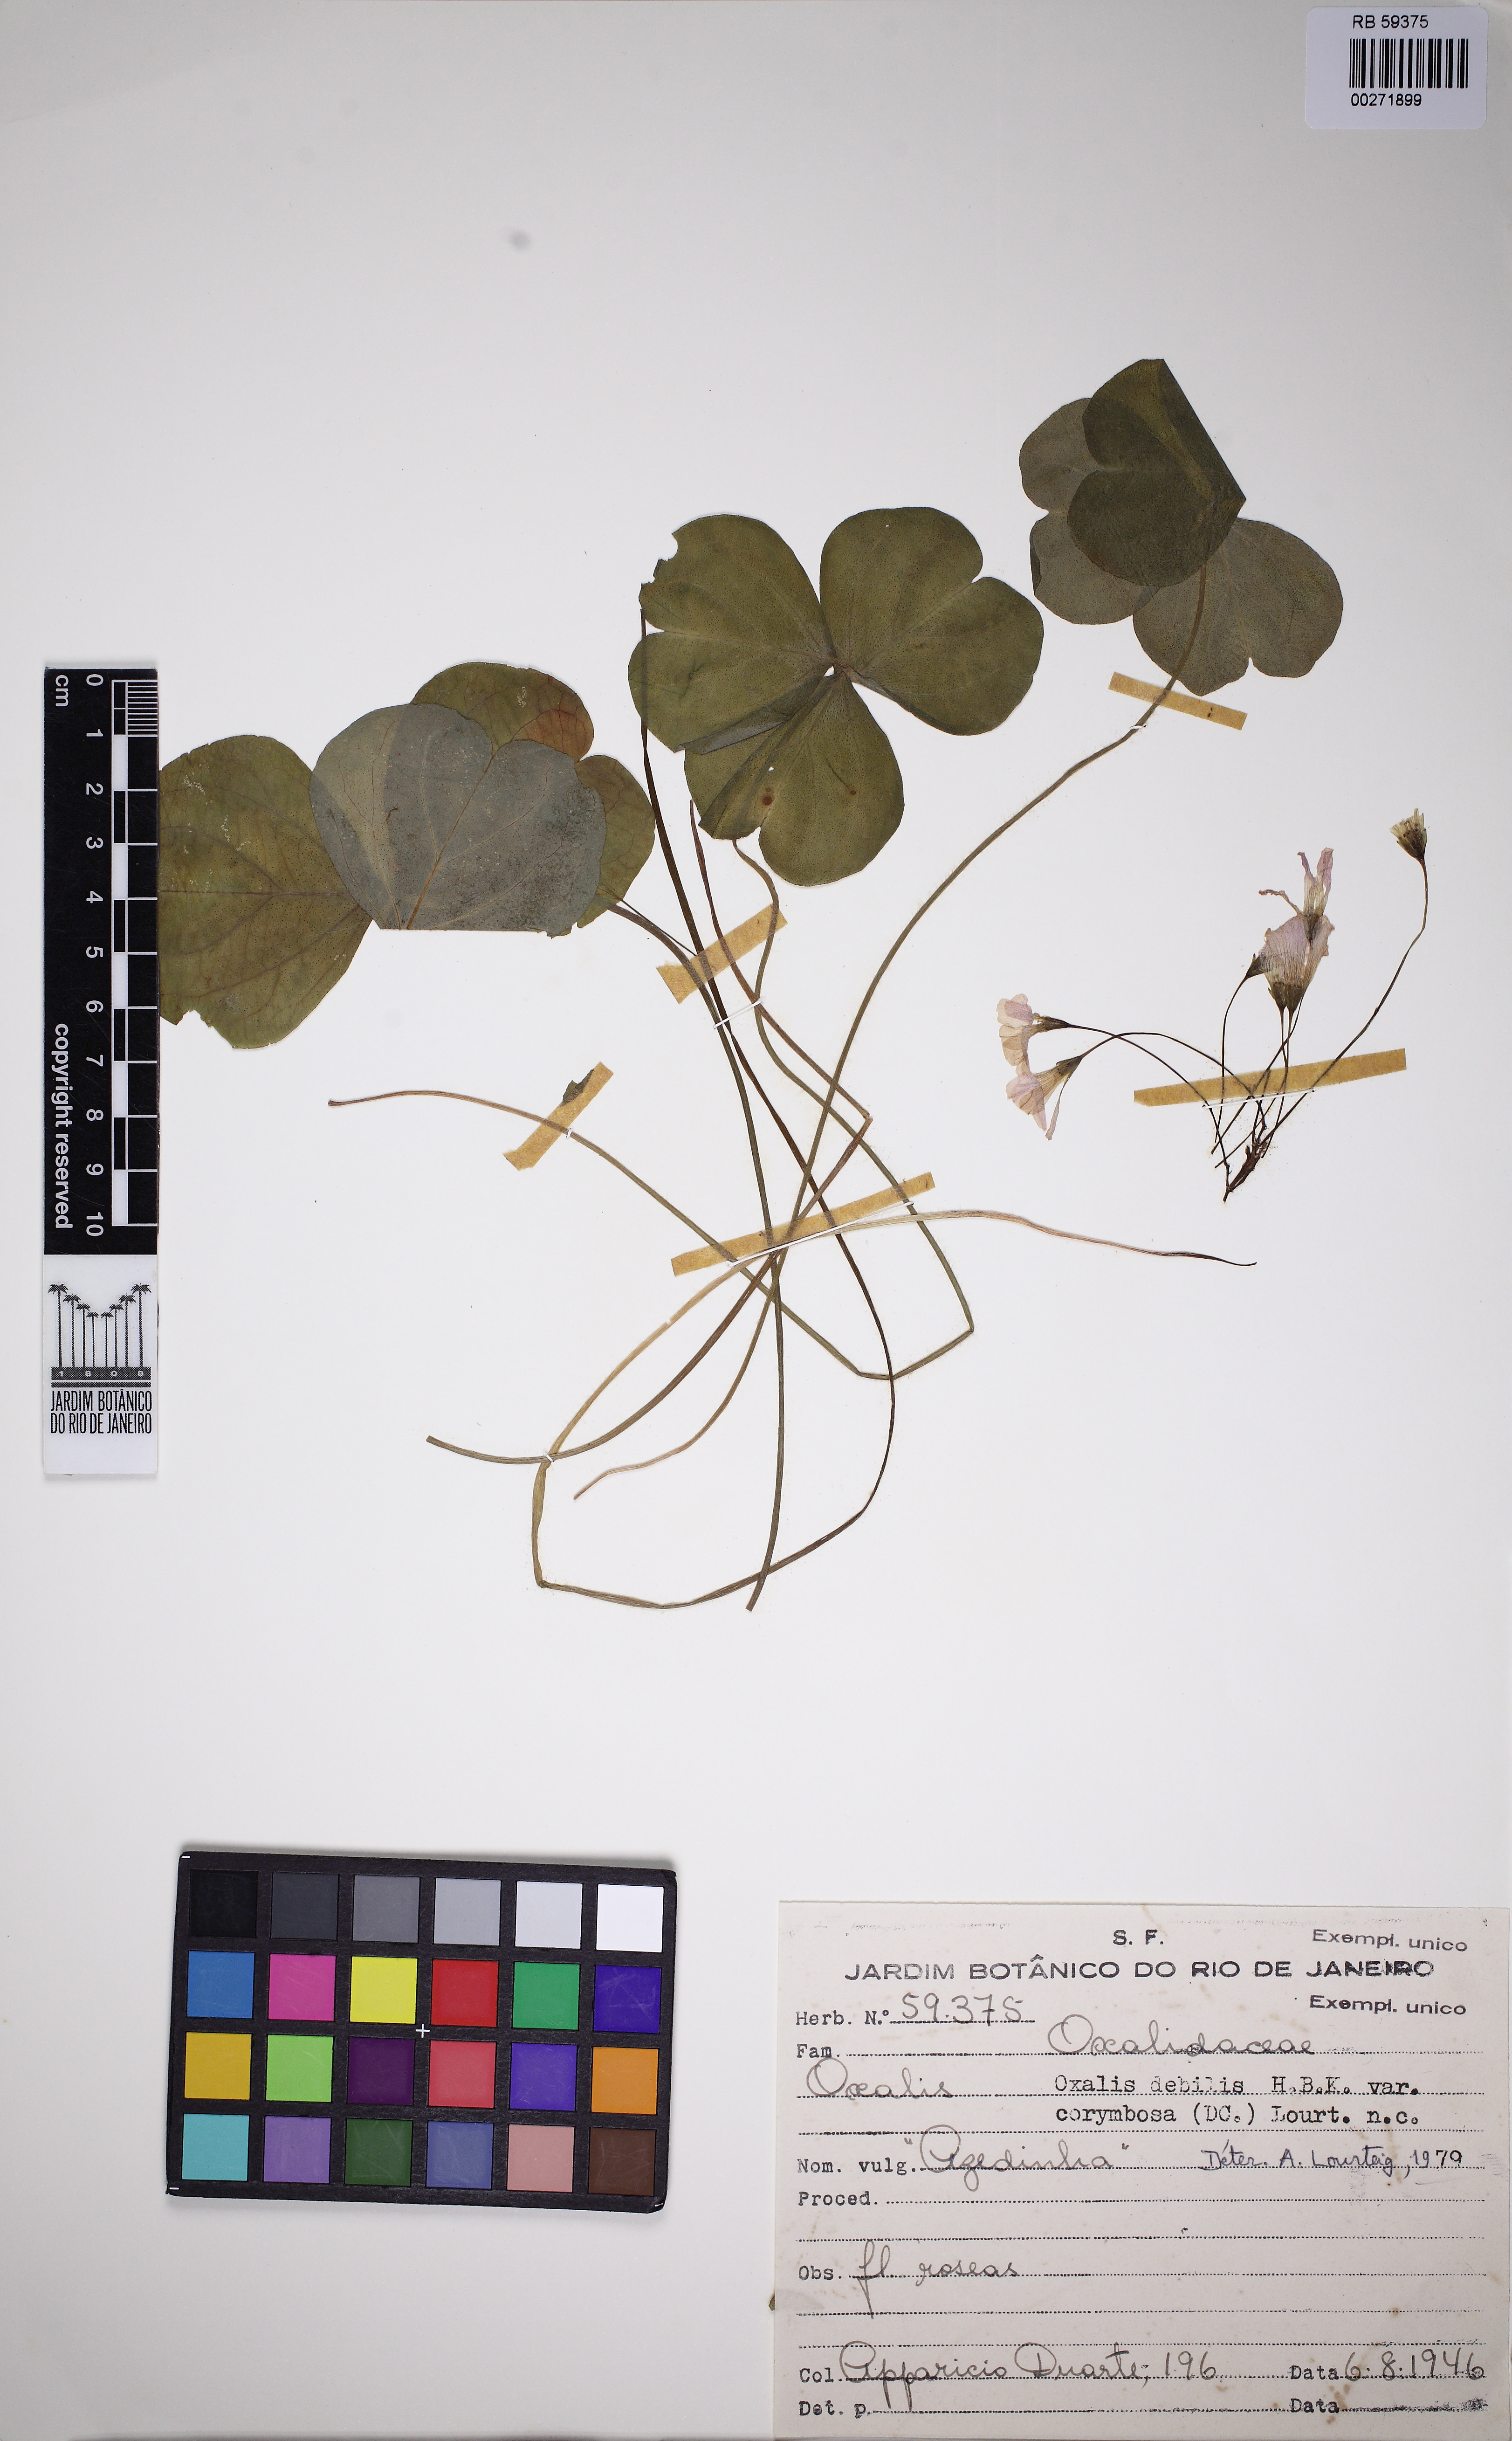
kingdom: Plantae
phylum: Tracheophyta
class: Magnoliopsida
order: Oxalidales
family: Oxalidaceae
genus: Oxalis
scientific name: Oxalis debilis
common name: Large-flowered pink-sorrel
